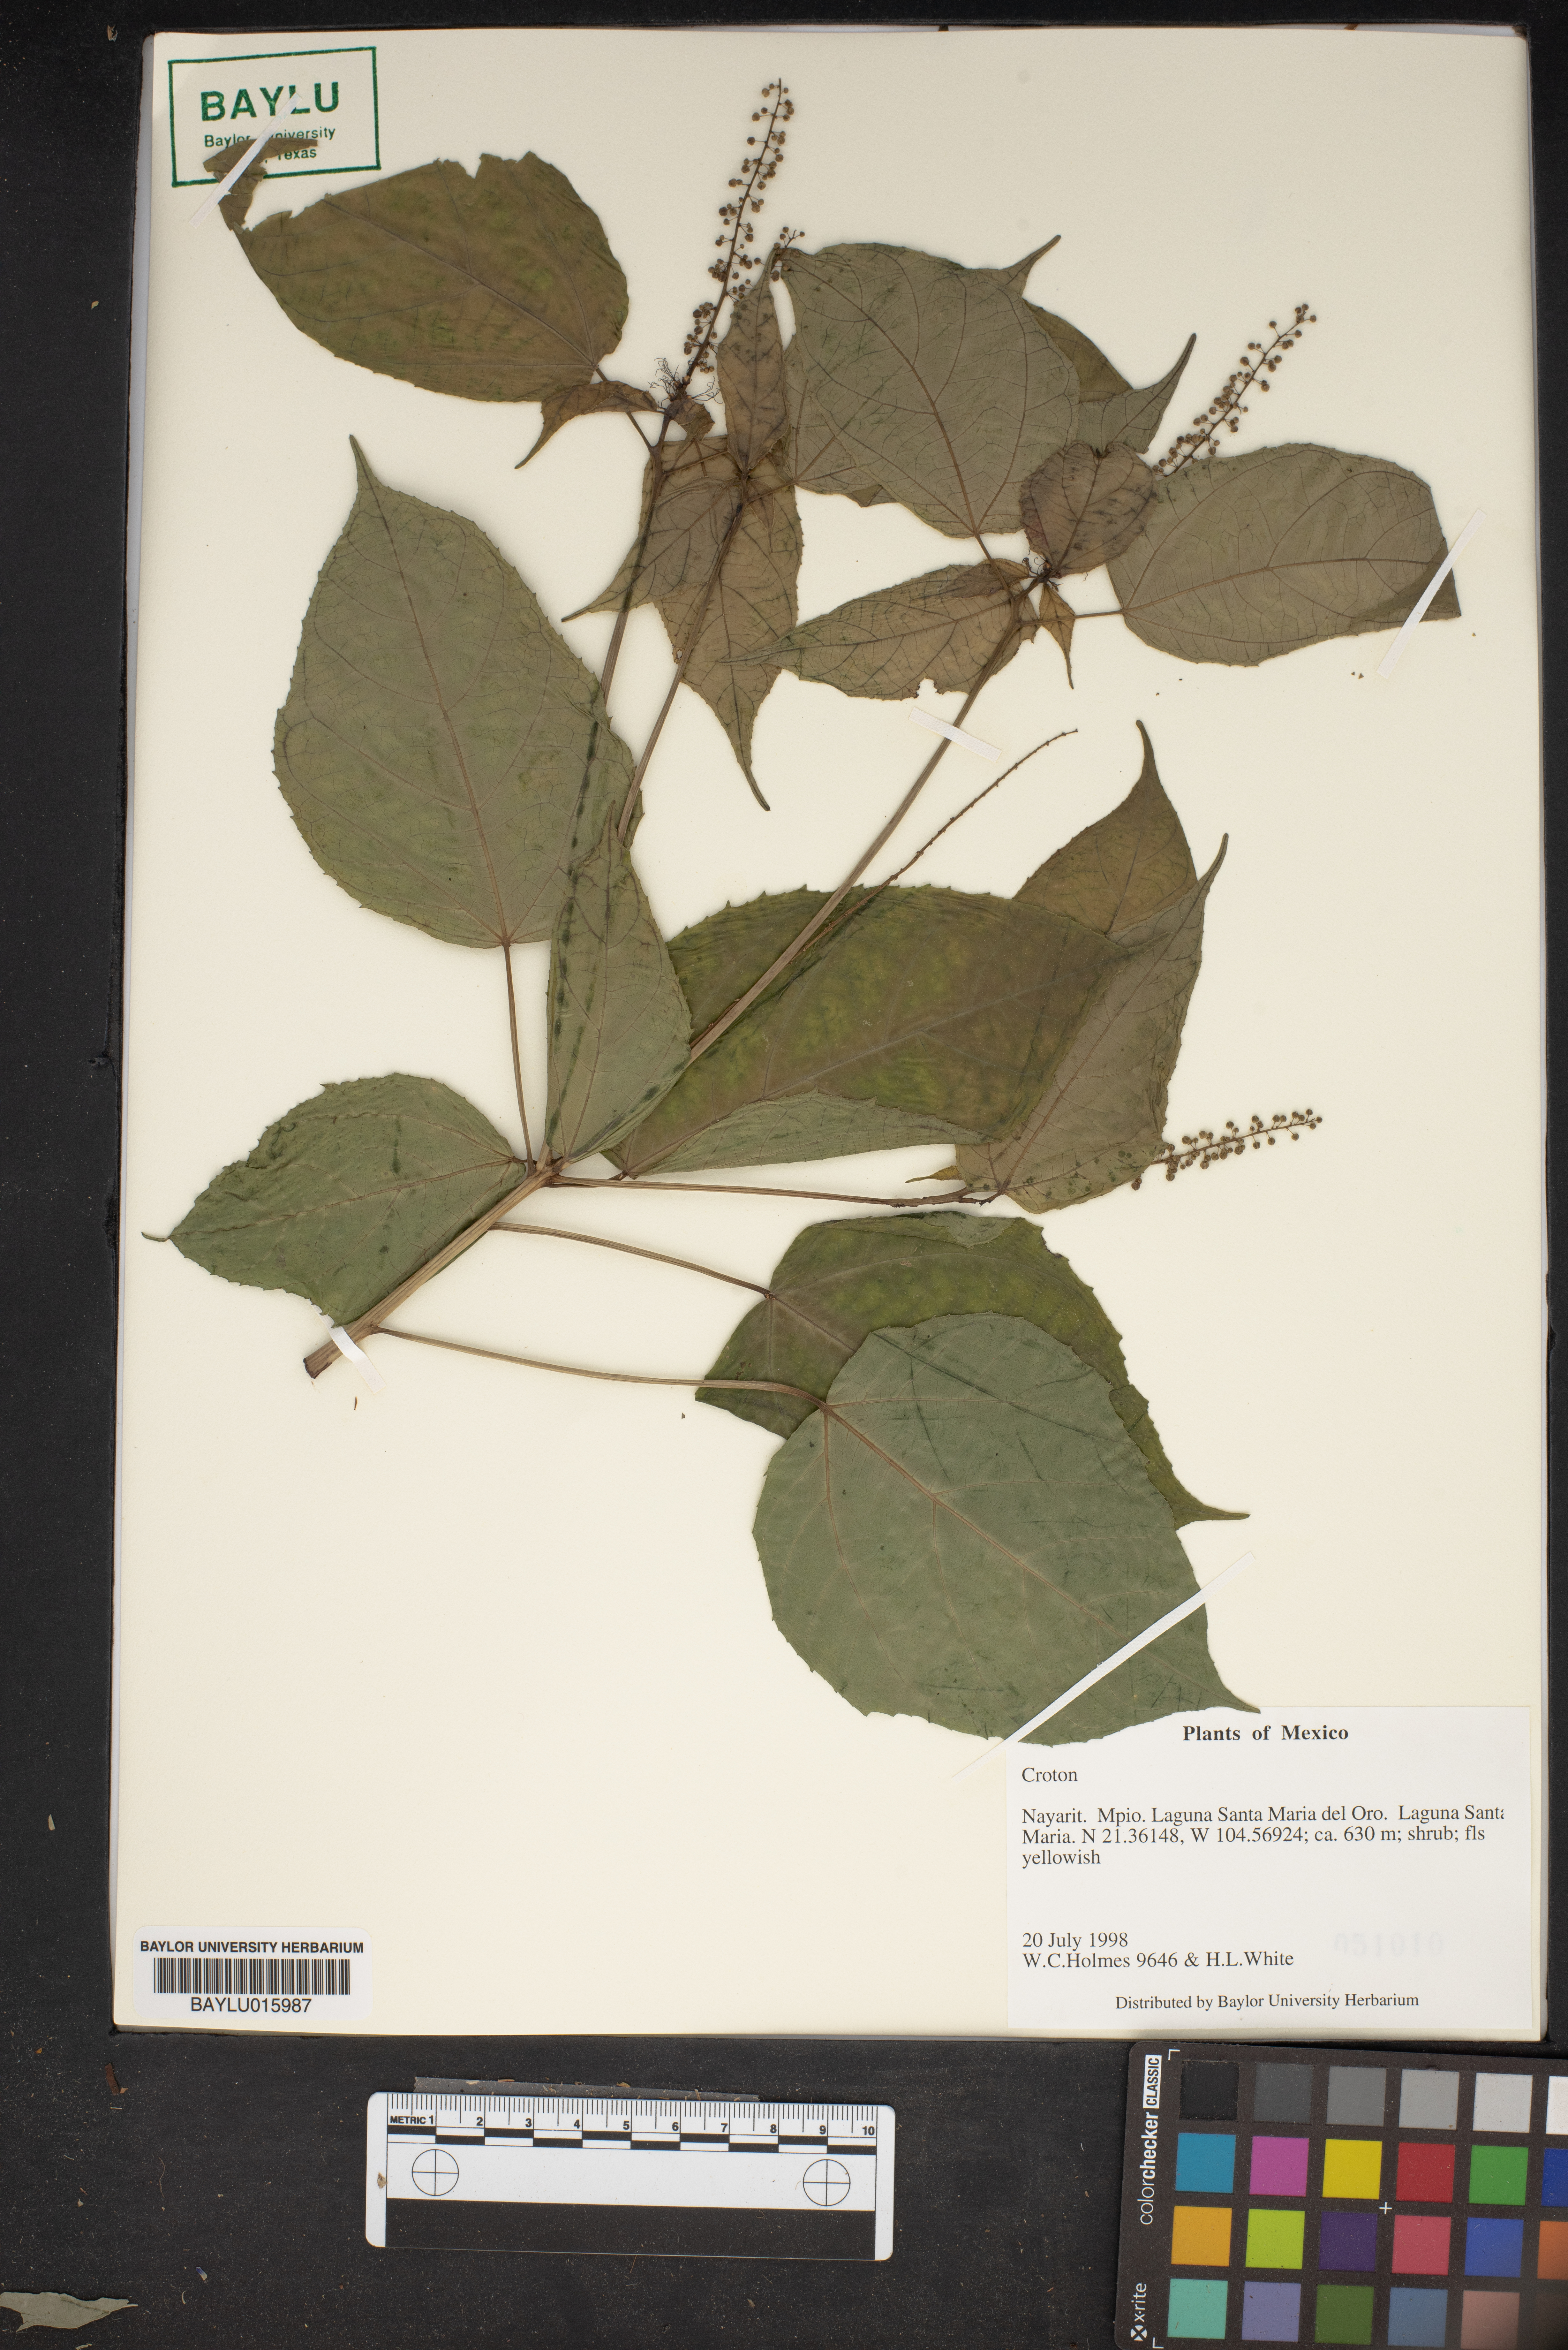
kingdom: Plantae
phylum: Tracheophyta
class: Magnoliopsida
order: Malpighiales
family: Euphorbiaceae
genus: Croton
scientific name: Croton
